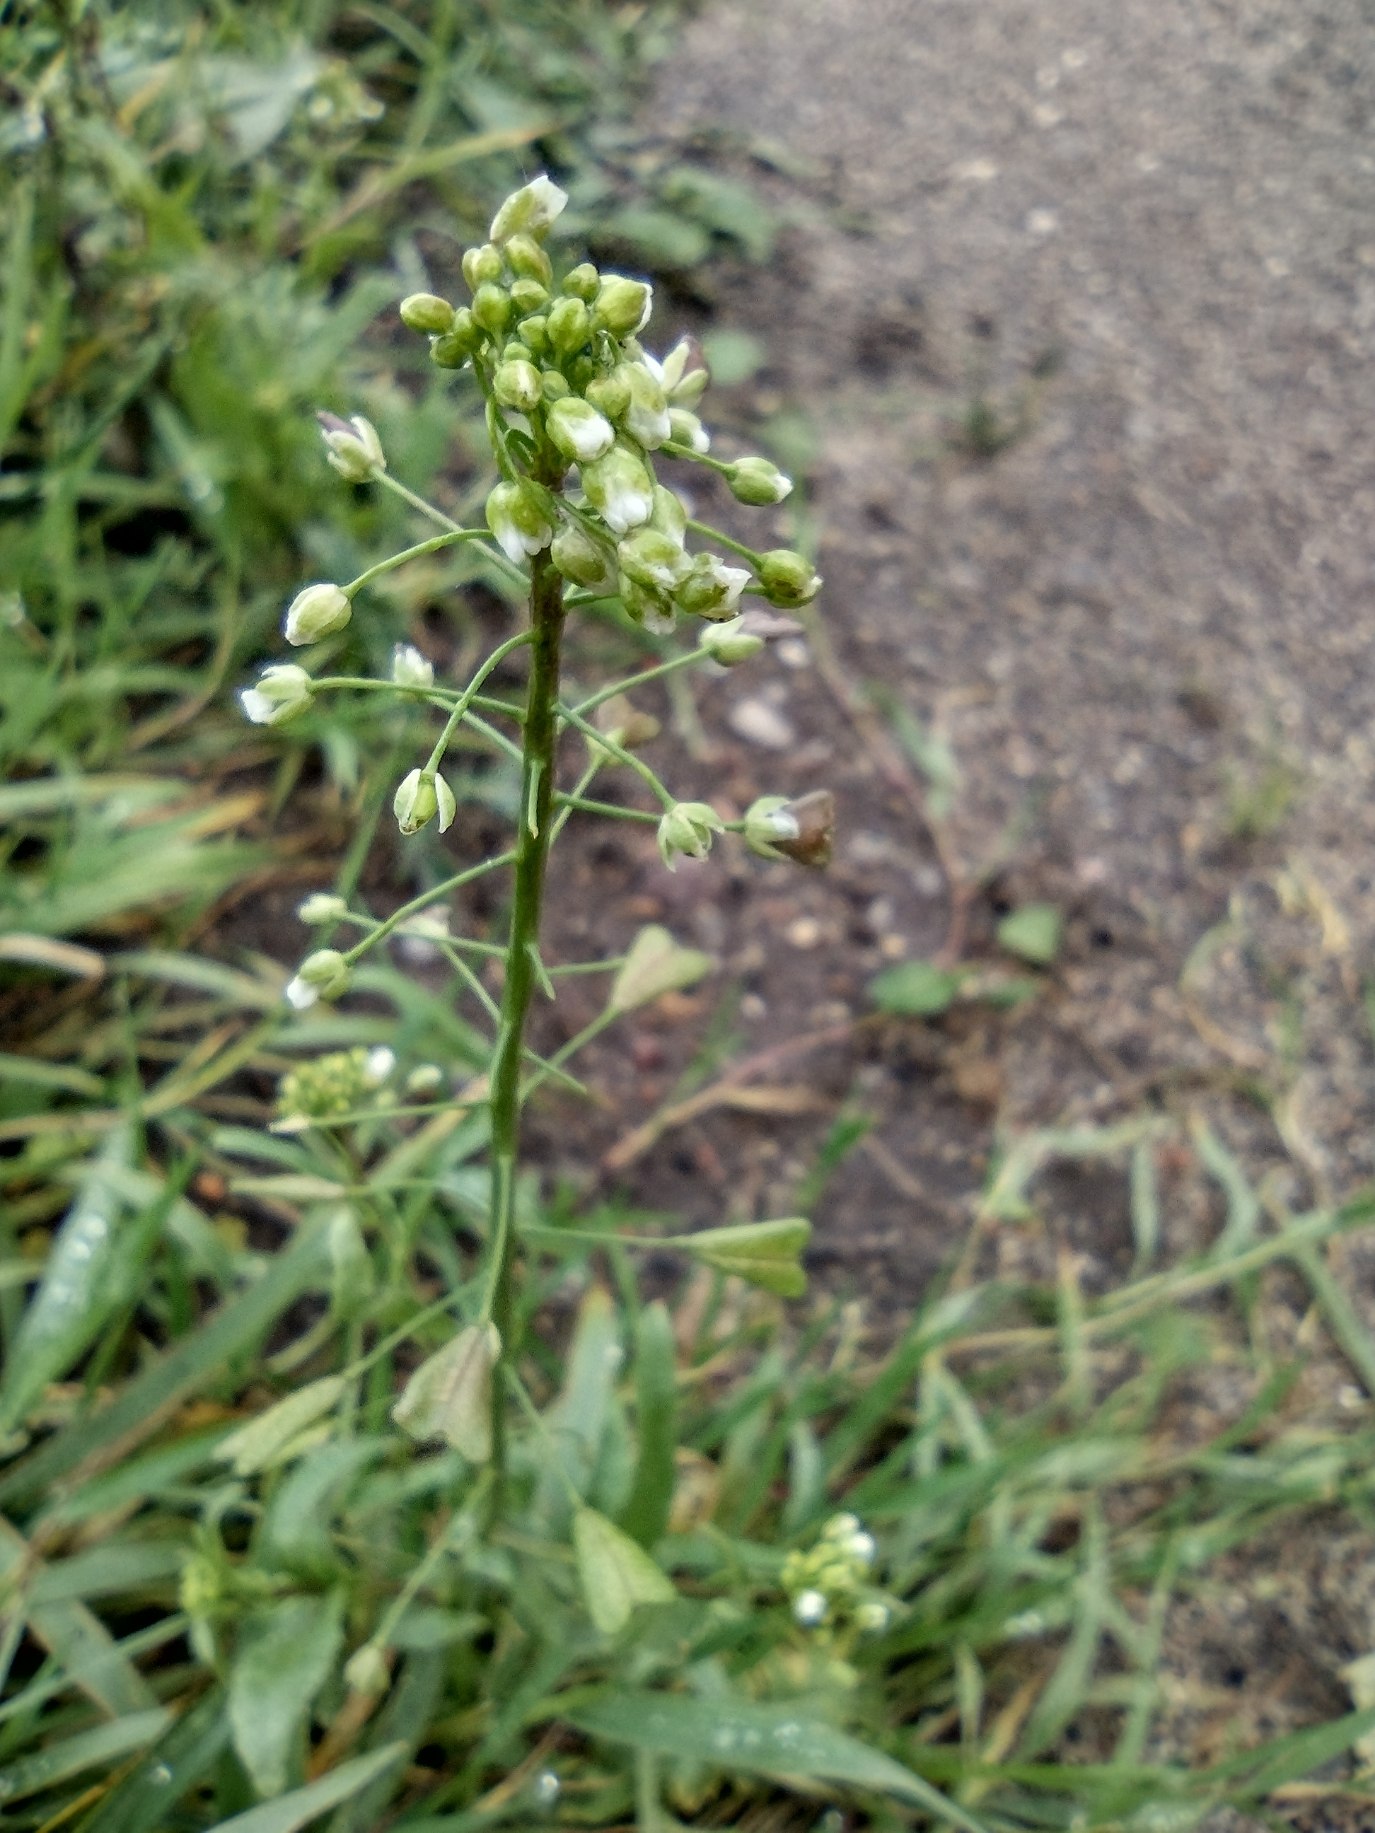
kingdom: Plantae
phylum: Tracheophyta
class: Magnoliopsida
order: Brassicales
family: Brassicaceae
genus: Capsella
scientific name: Capsella bursa-pastoris
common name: Hyrdetaske
